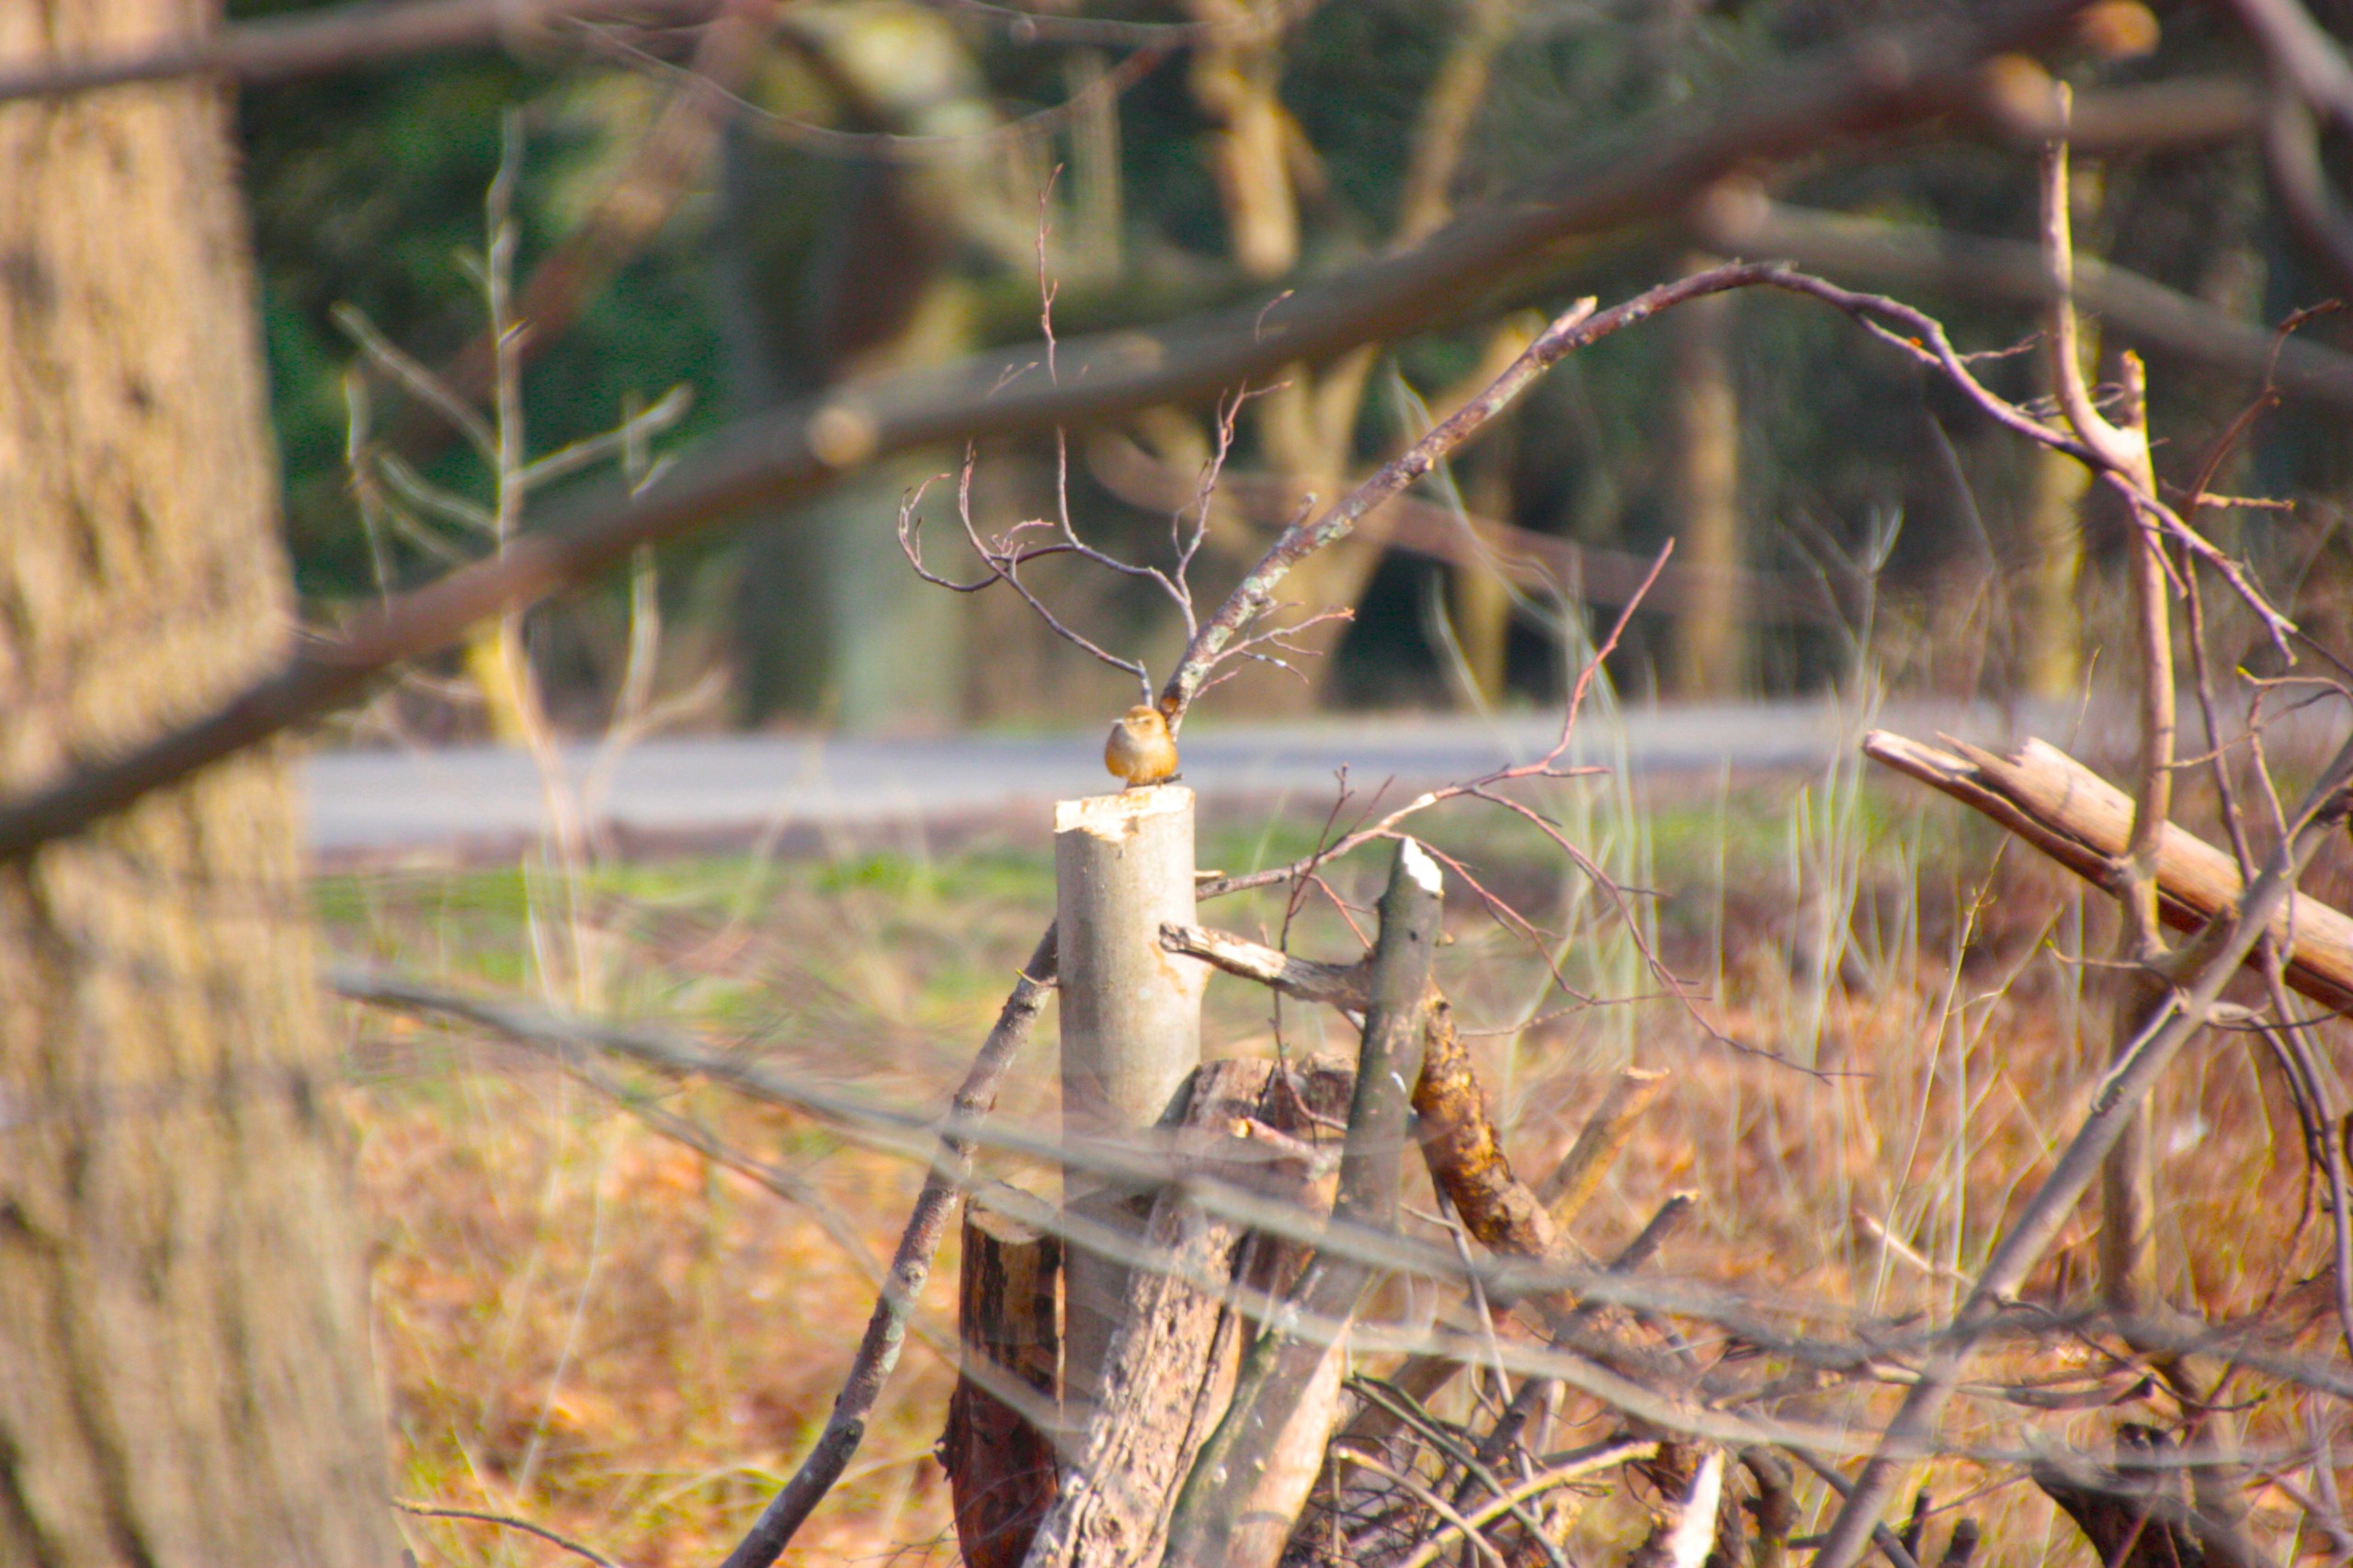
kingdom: Animalia
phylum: Chordata
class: Aves
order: Passeriformes
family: Troglodytidae
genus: Troglodytes
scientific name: Troglodytes troglodytes
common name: Gærdesmutte
